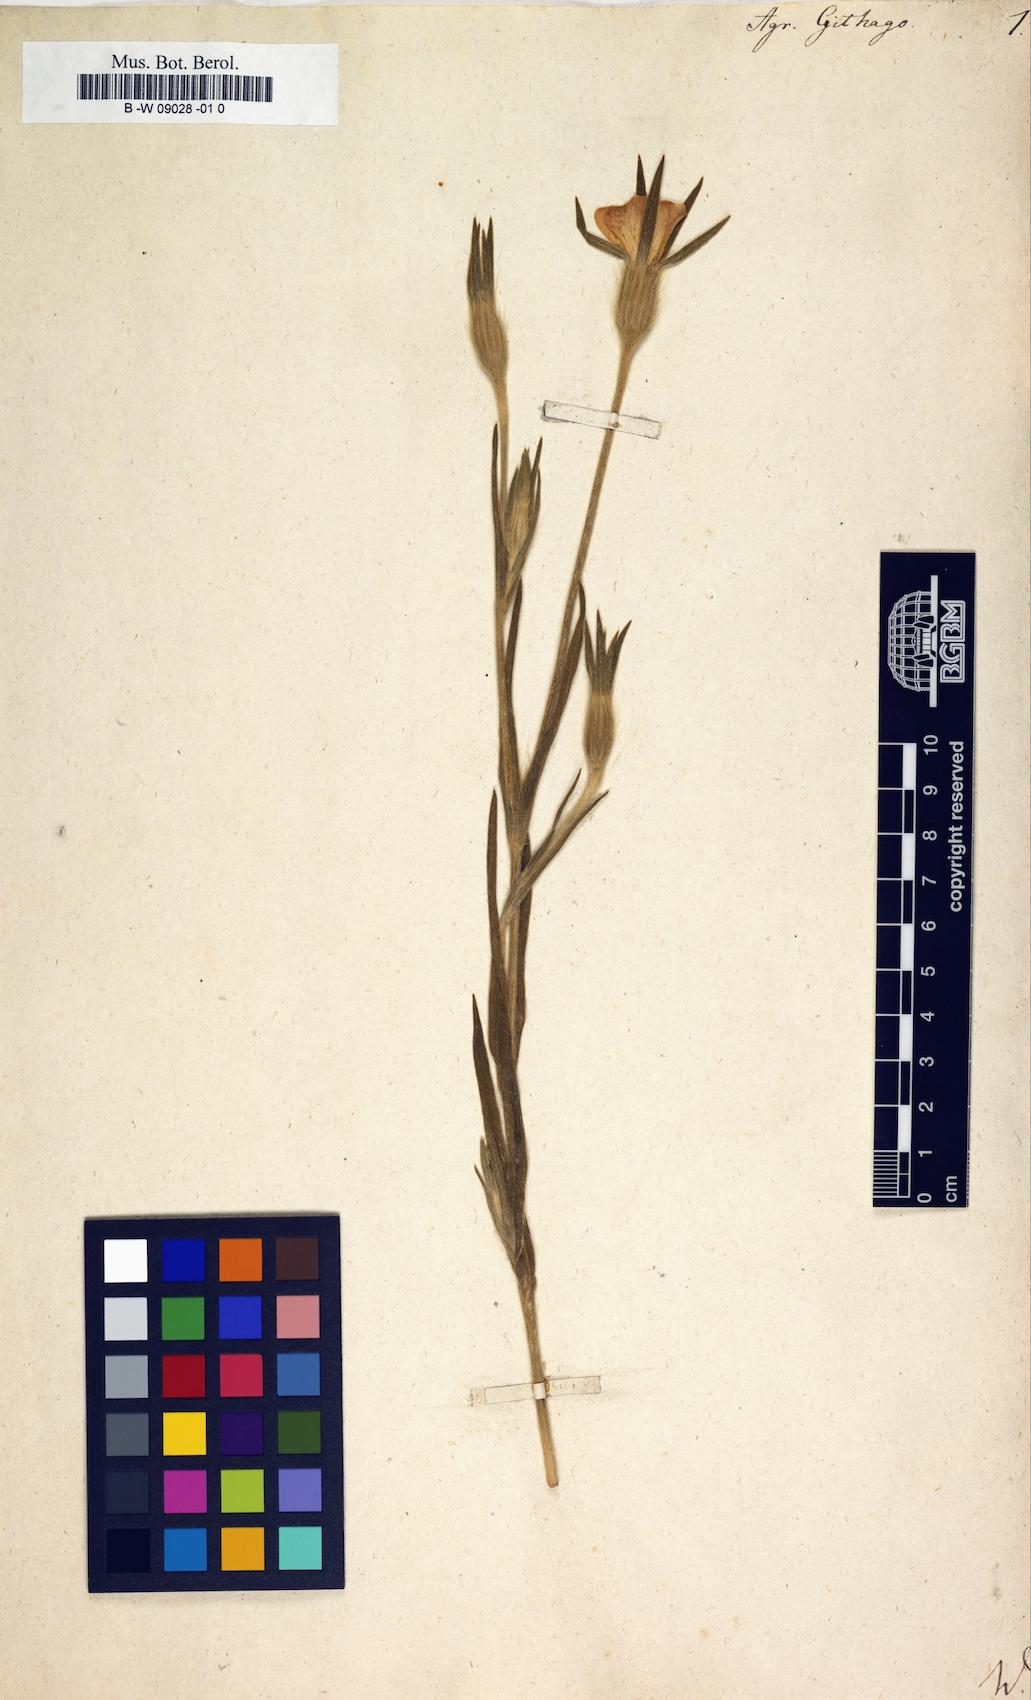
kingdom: Plantae
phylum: Tracheophyta
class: Magnoliopsida
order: Caryophyllales
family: Caryophyllaceae
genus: Agrostemma
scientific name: Agrostemma githago
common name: Common corncockle
